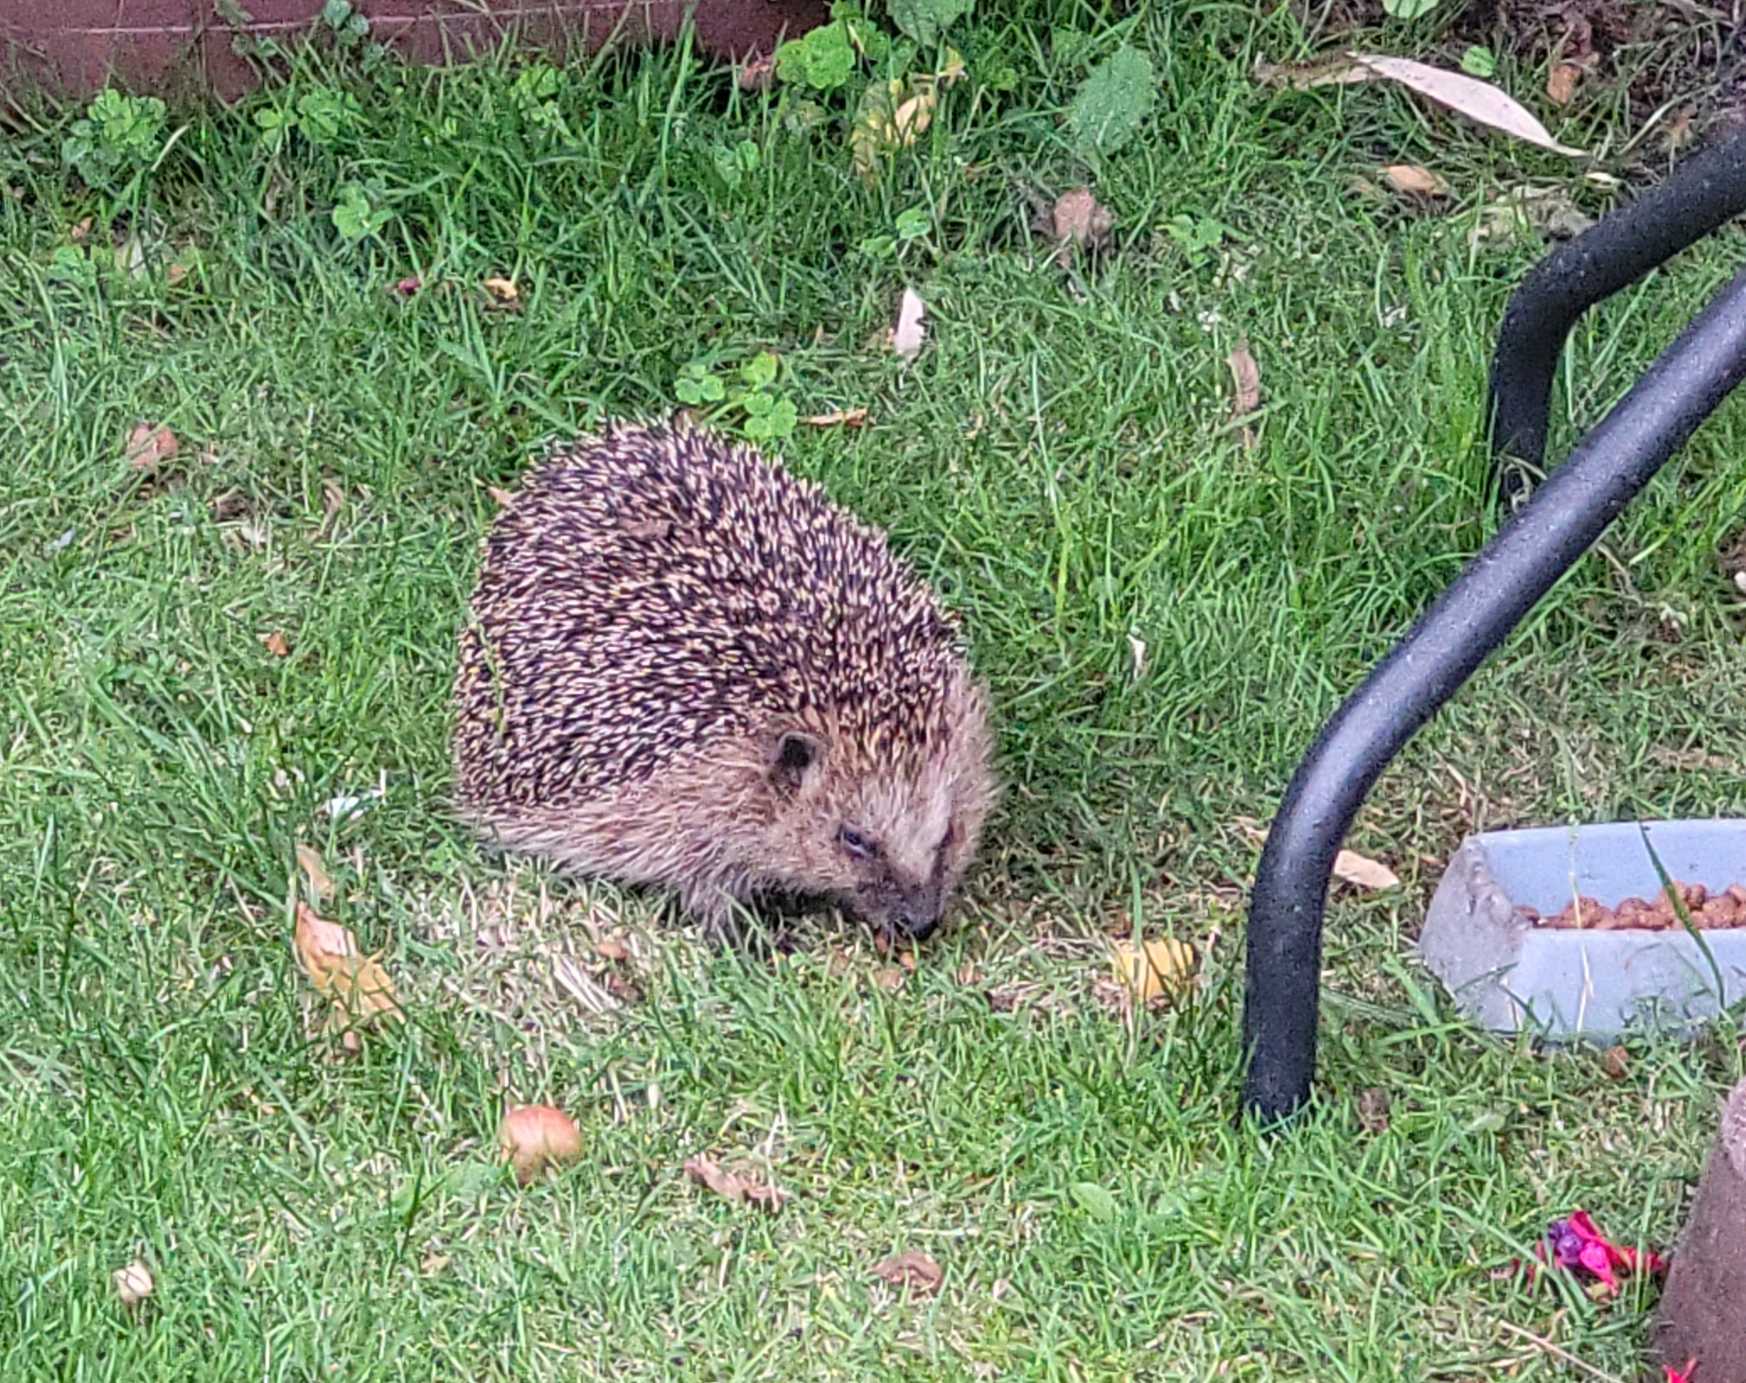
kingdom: Animalia
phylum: Chordata
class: Mammalia
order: Erinaceomorpha
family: Erinaceidae
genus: Erinaceus
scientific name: Erinaceus europaeus
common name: Pindsvin
